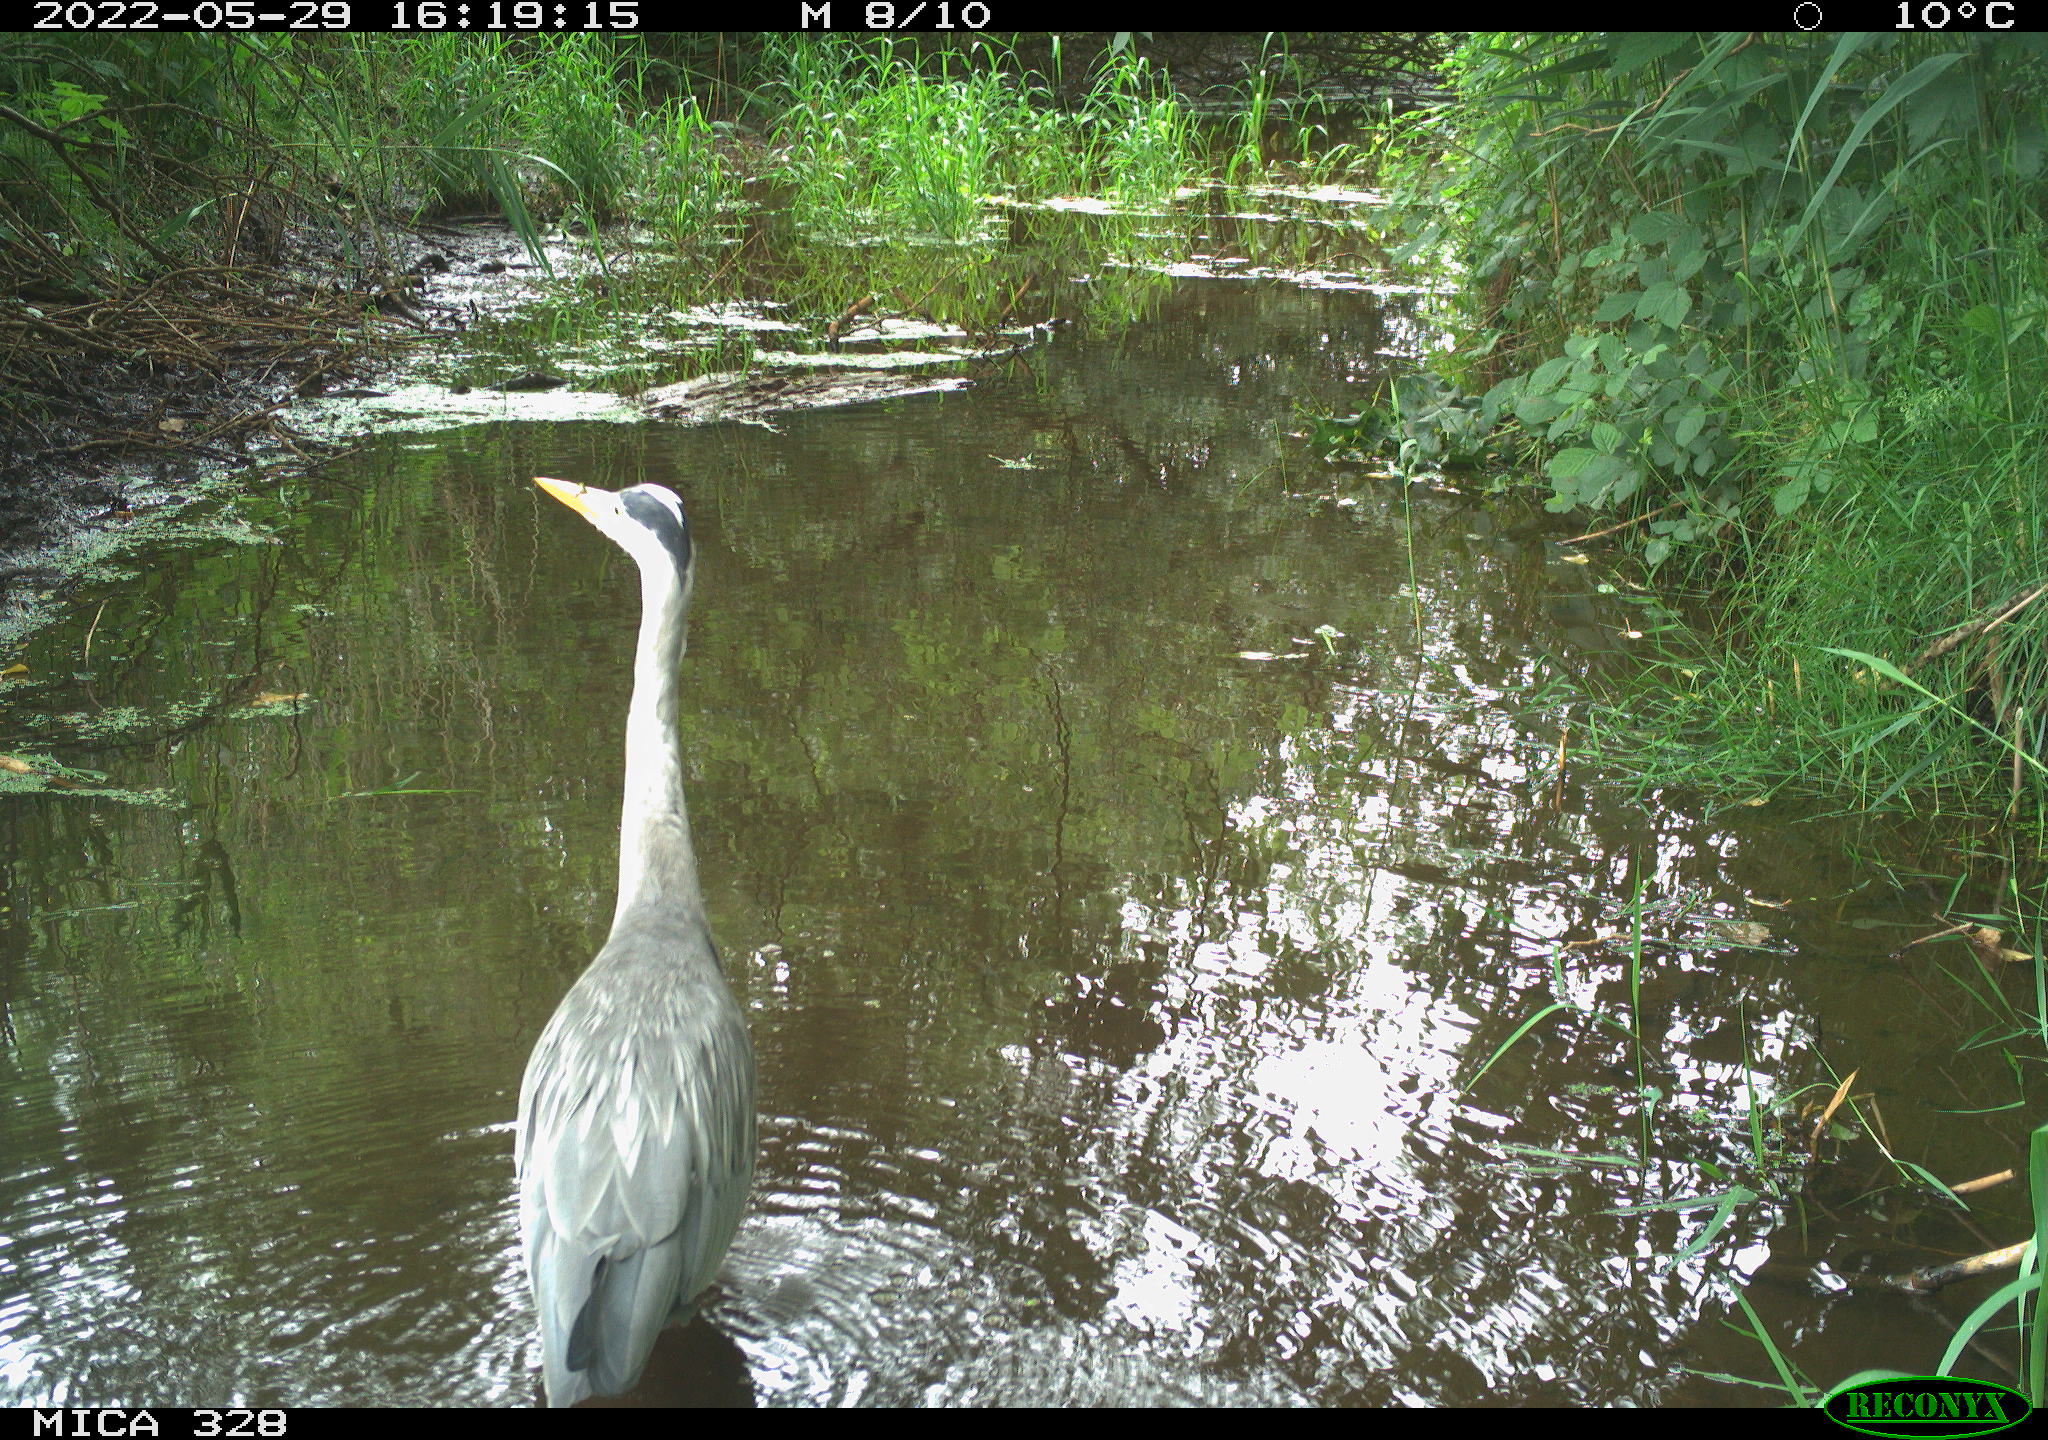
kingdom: Animalia
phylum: Chordata
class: Aves
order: Pelecaniformes
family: Ardeidae
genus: Ardea
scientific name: Ardea cinerea
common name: Grey heron
